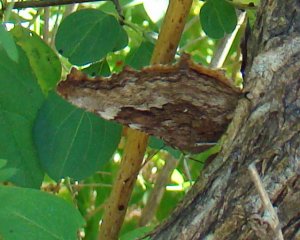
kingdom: Animalia
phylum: Arthropoda
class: Insecta
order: Lepidoptera
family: Nymphalidae
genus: Polygonia
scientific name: Polygonia vaualbum
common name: Compton Tortoiseshell
